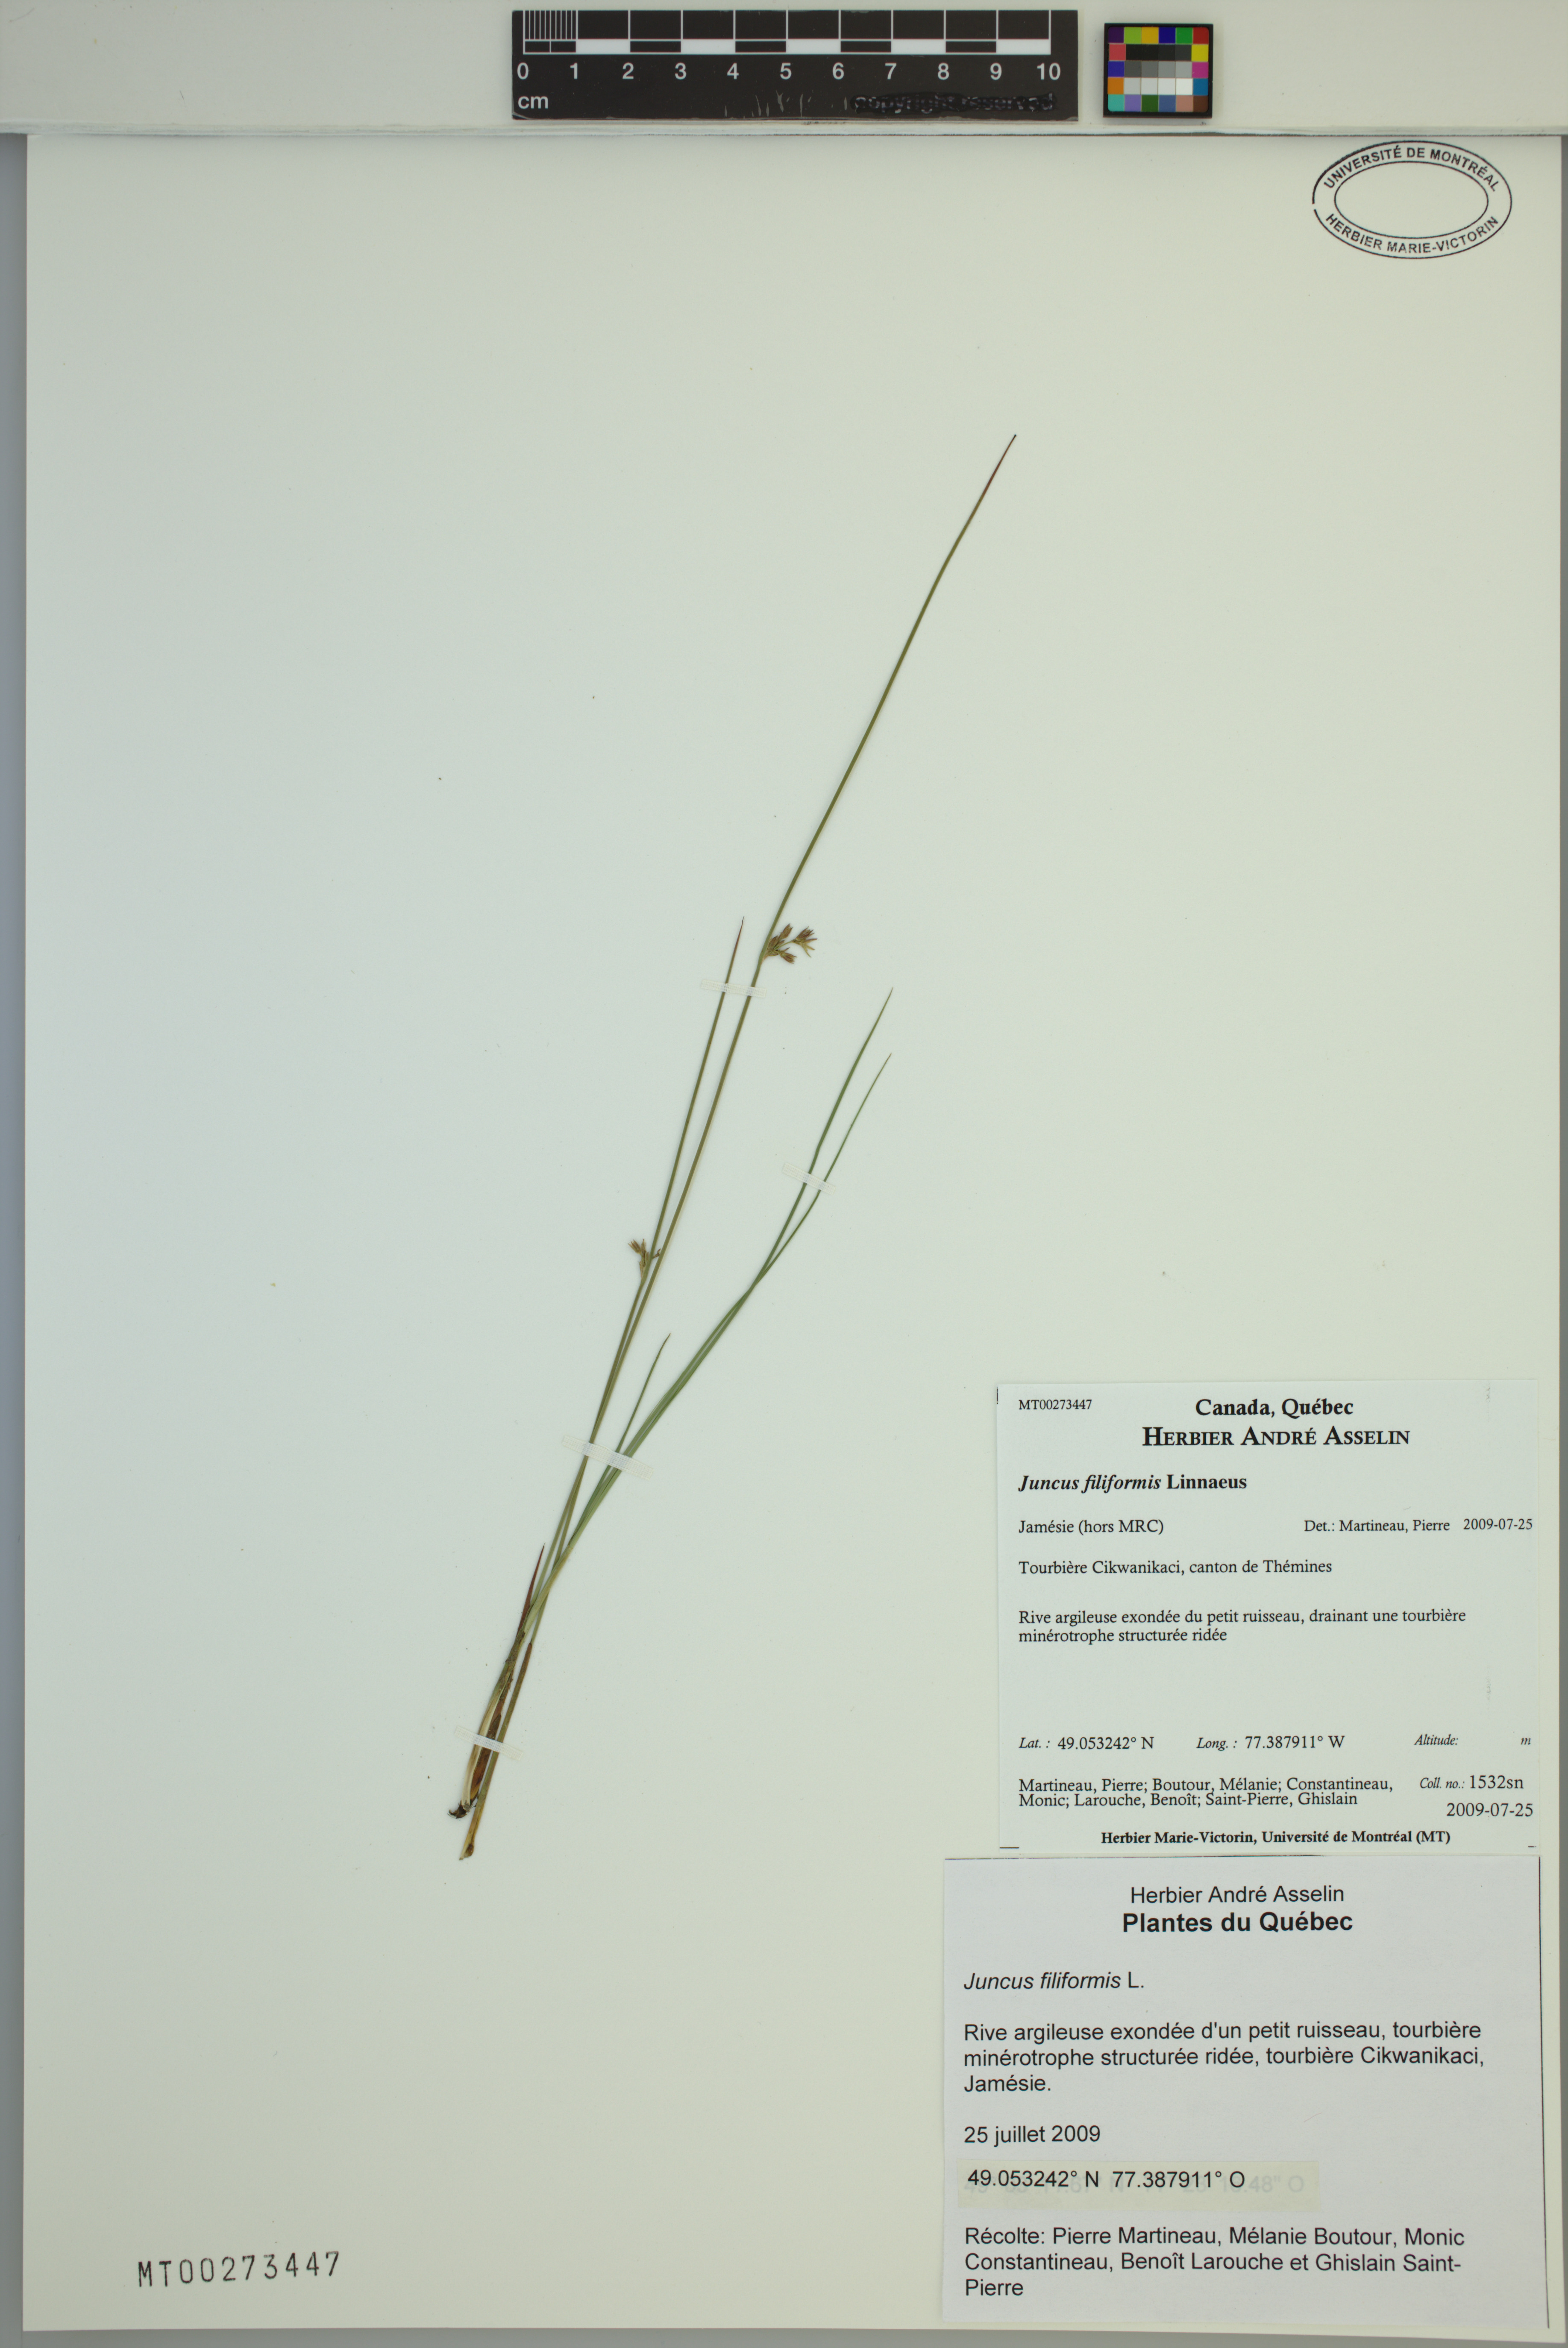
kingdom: Plantae
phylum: Tracheophyta
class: Liliopsida
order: Poales
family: Juncaceae
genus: Juncus
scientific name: Juncus filiformis
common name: Thread rush
